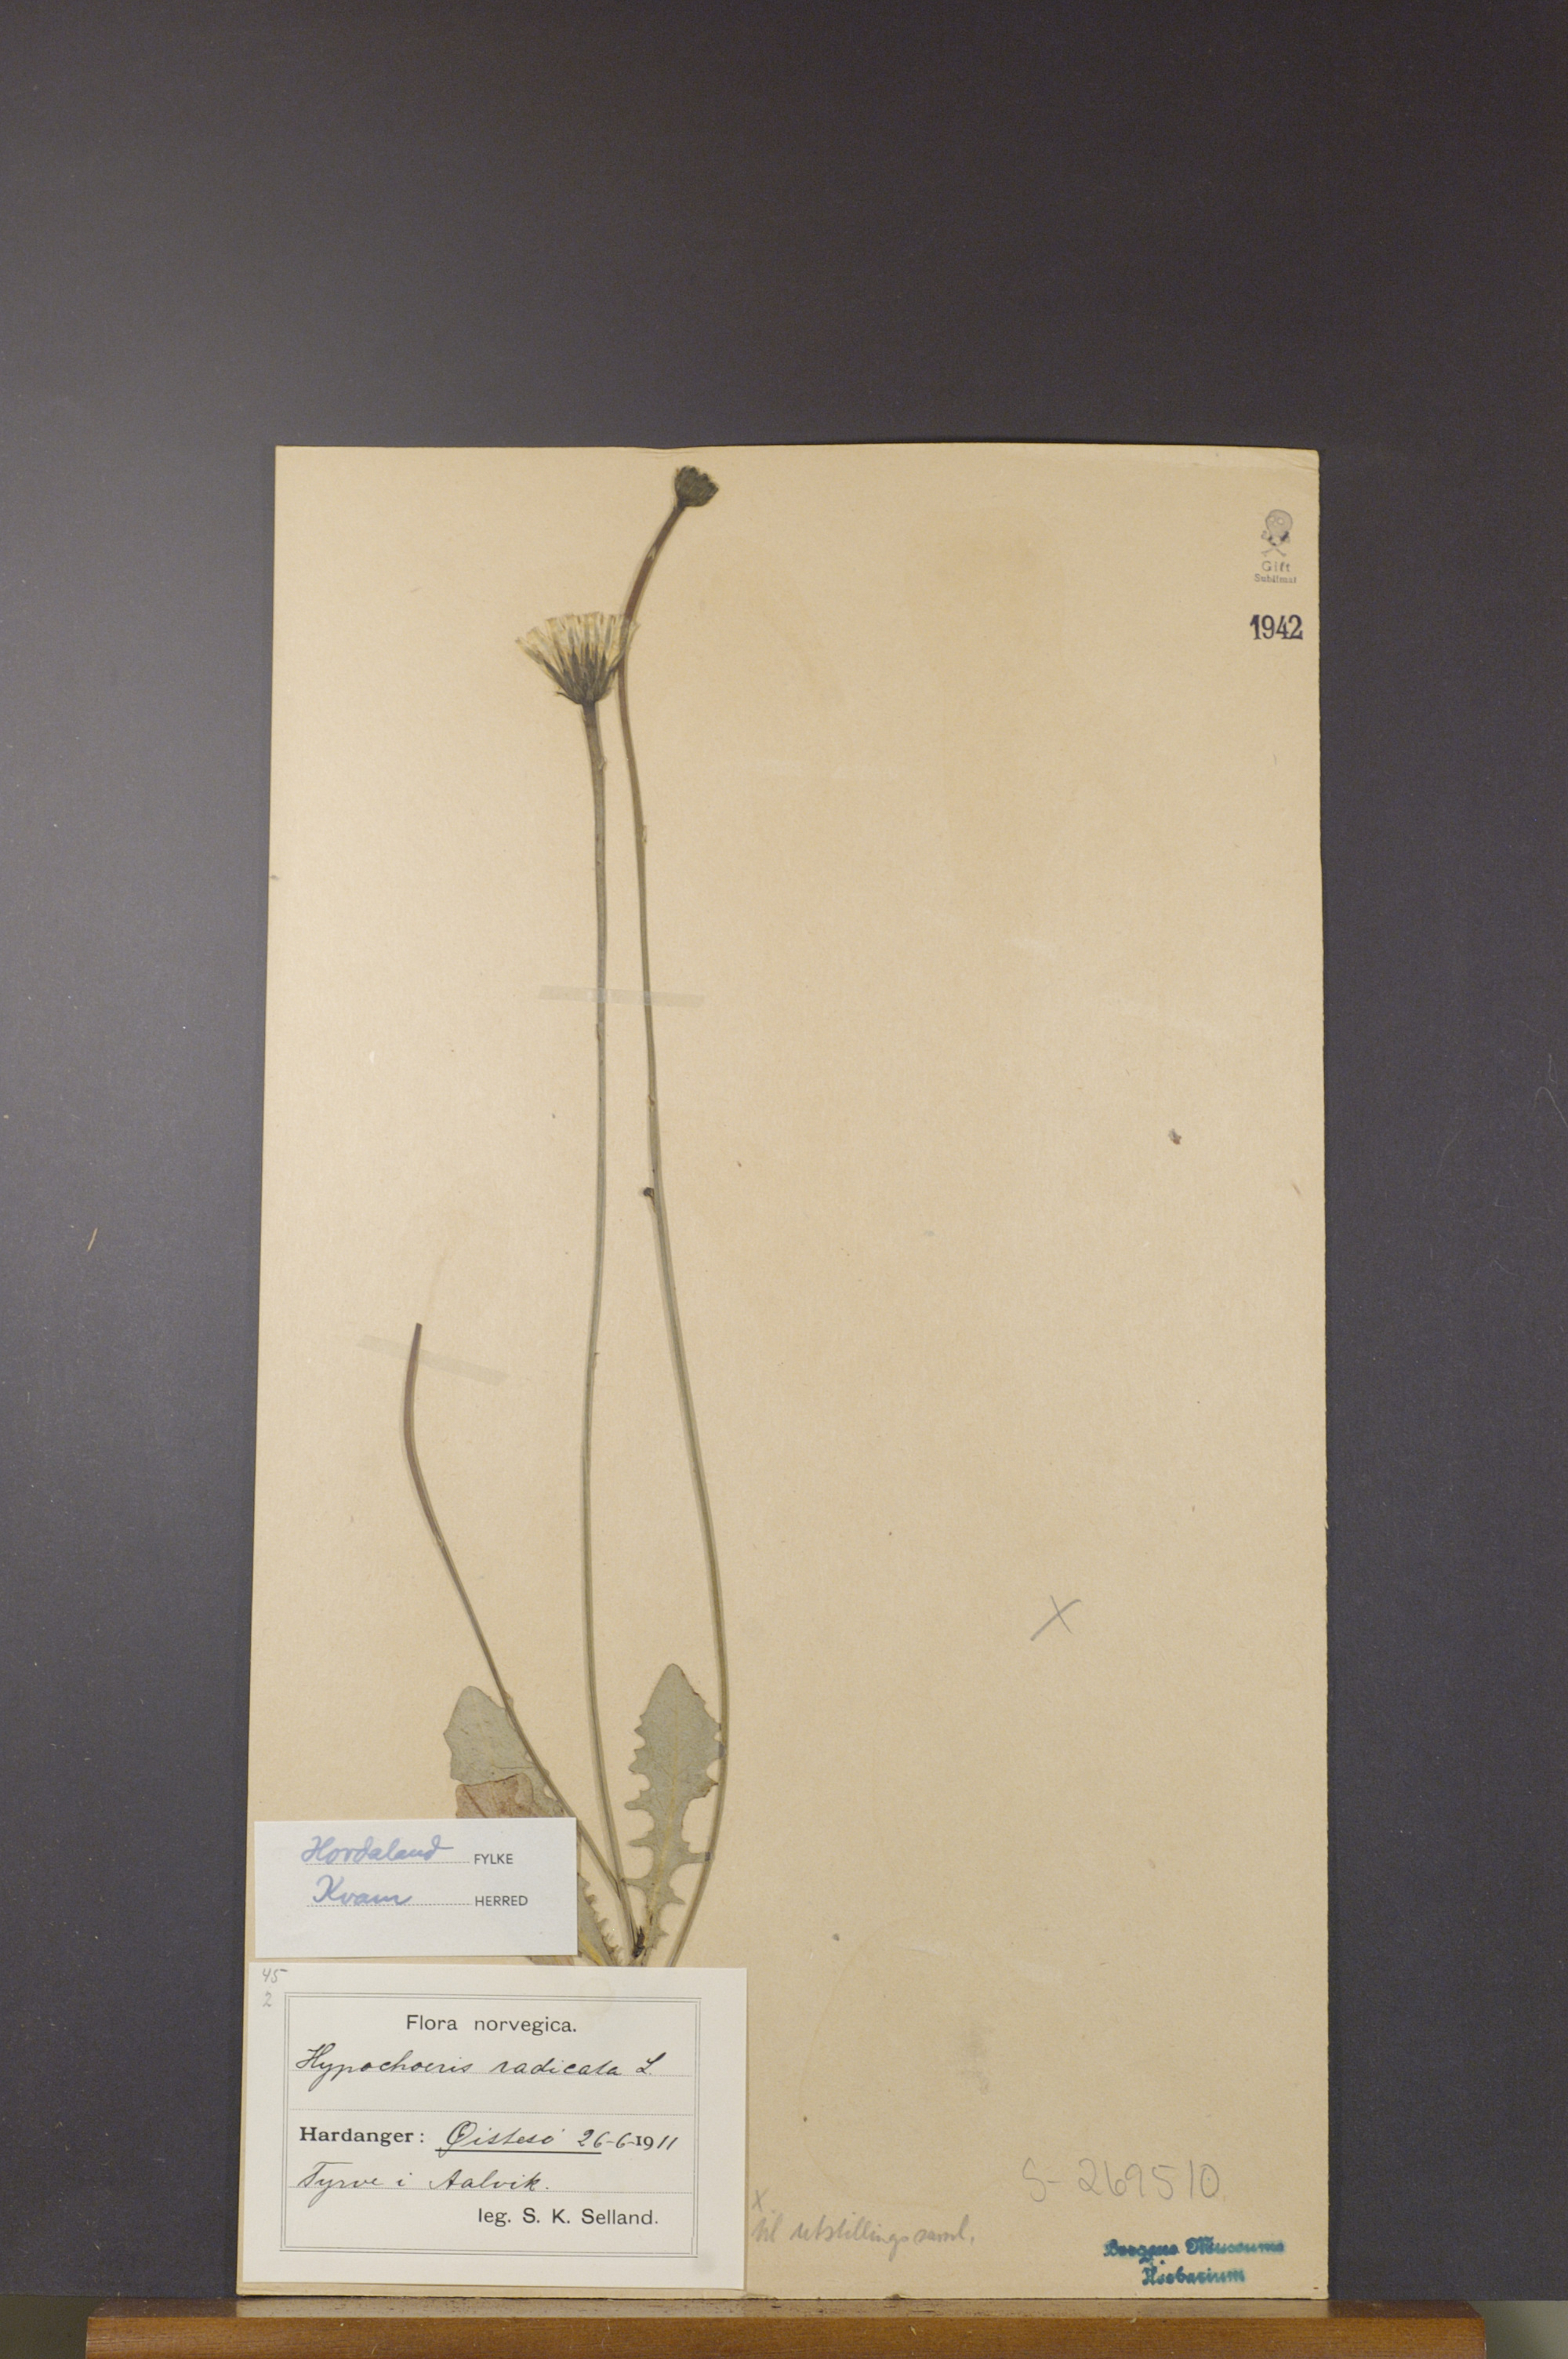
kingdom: Plantae
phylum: Tracheophyta
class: Magnoliopsida
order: Asterales
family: Asteraceae
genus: Hypochaeris
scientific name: Hypochaeris radicata
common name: Flatweed
